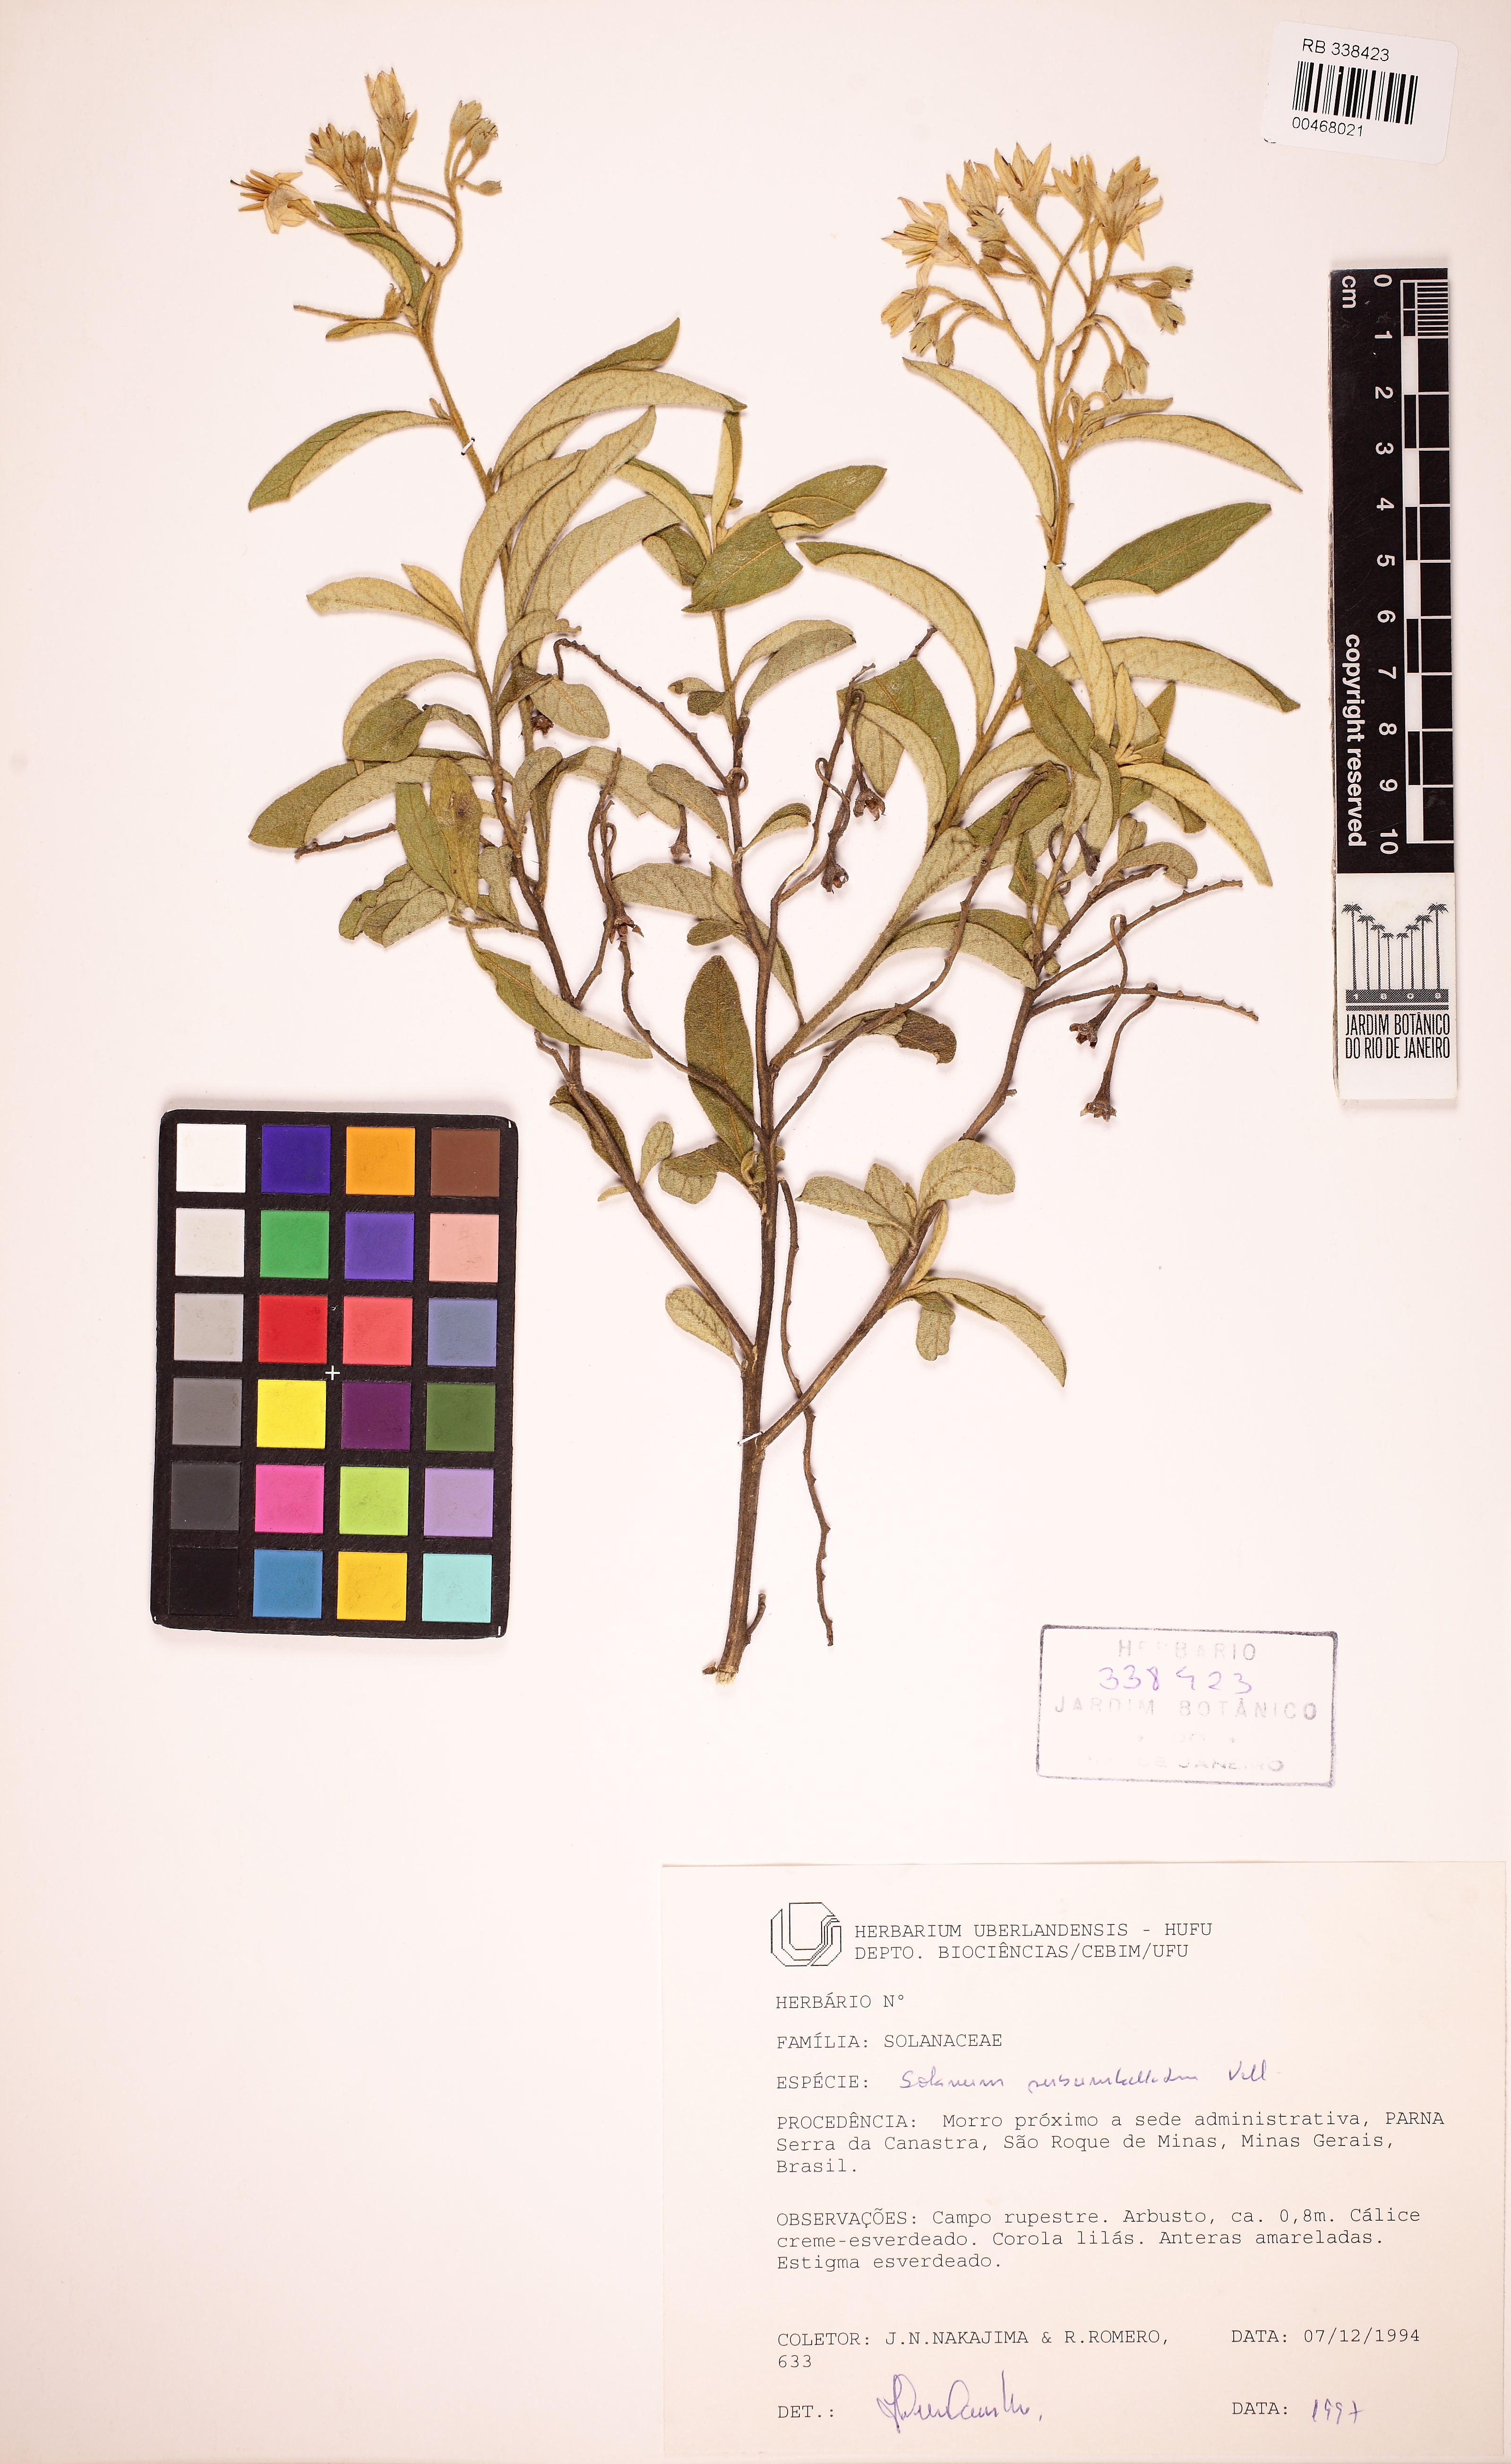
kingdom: Plantae
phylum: Tracheophyta
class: Magnoliopsida
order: Solanales
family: Solanaceae
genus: Solanum
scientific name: Solanum subumbellatum
